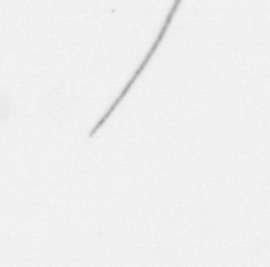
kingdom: Chromista
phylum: Ochrophyta
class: Bacillariophyceae
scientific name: Bacillariophyceae
